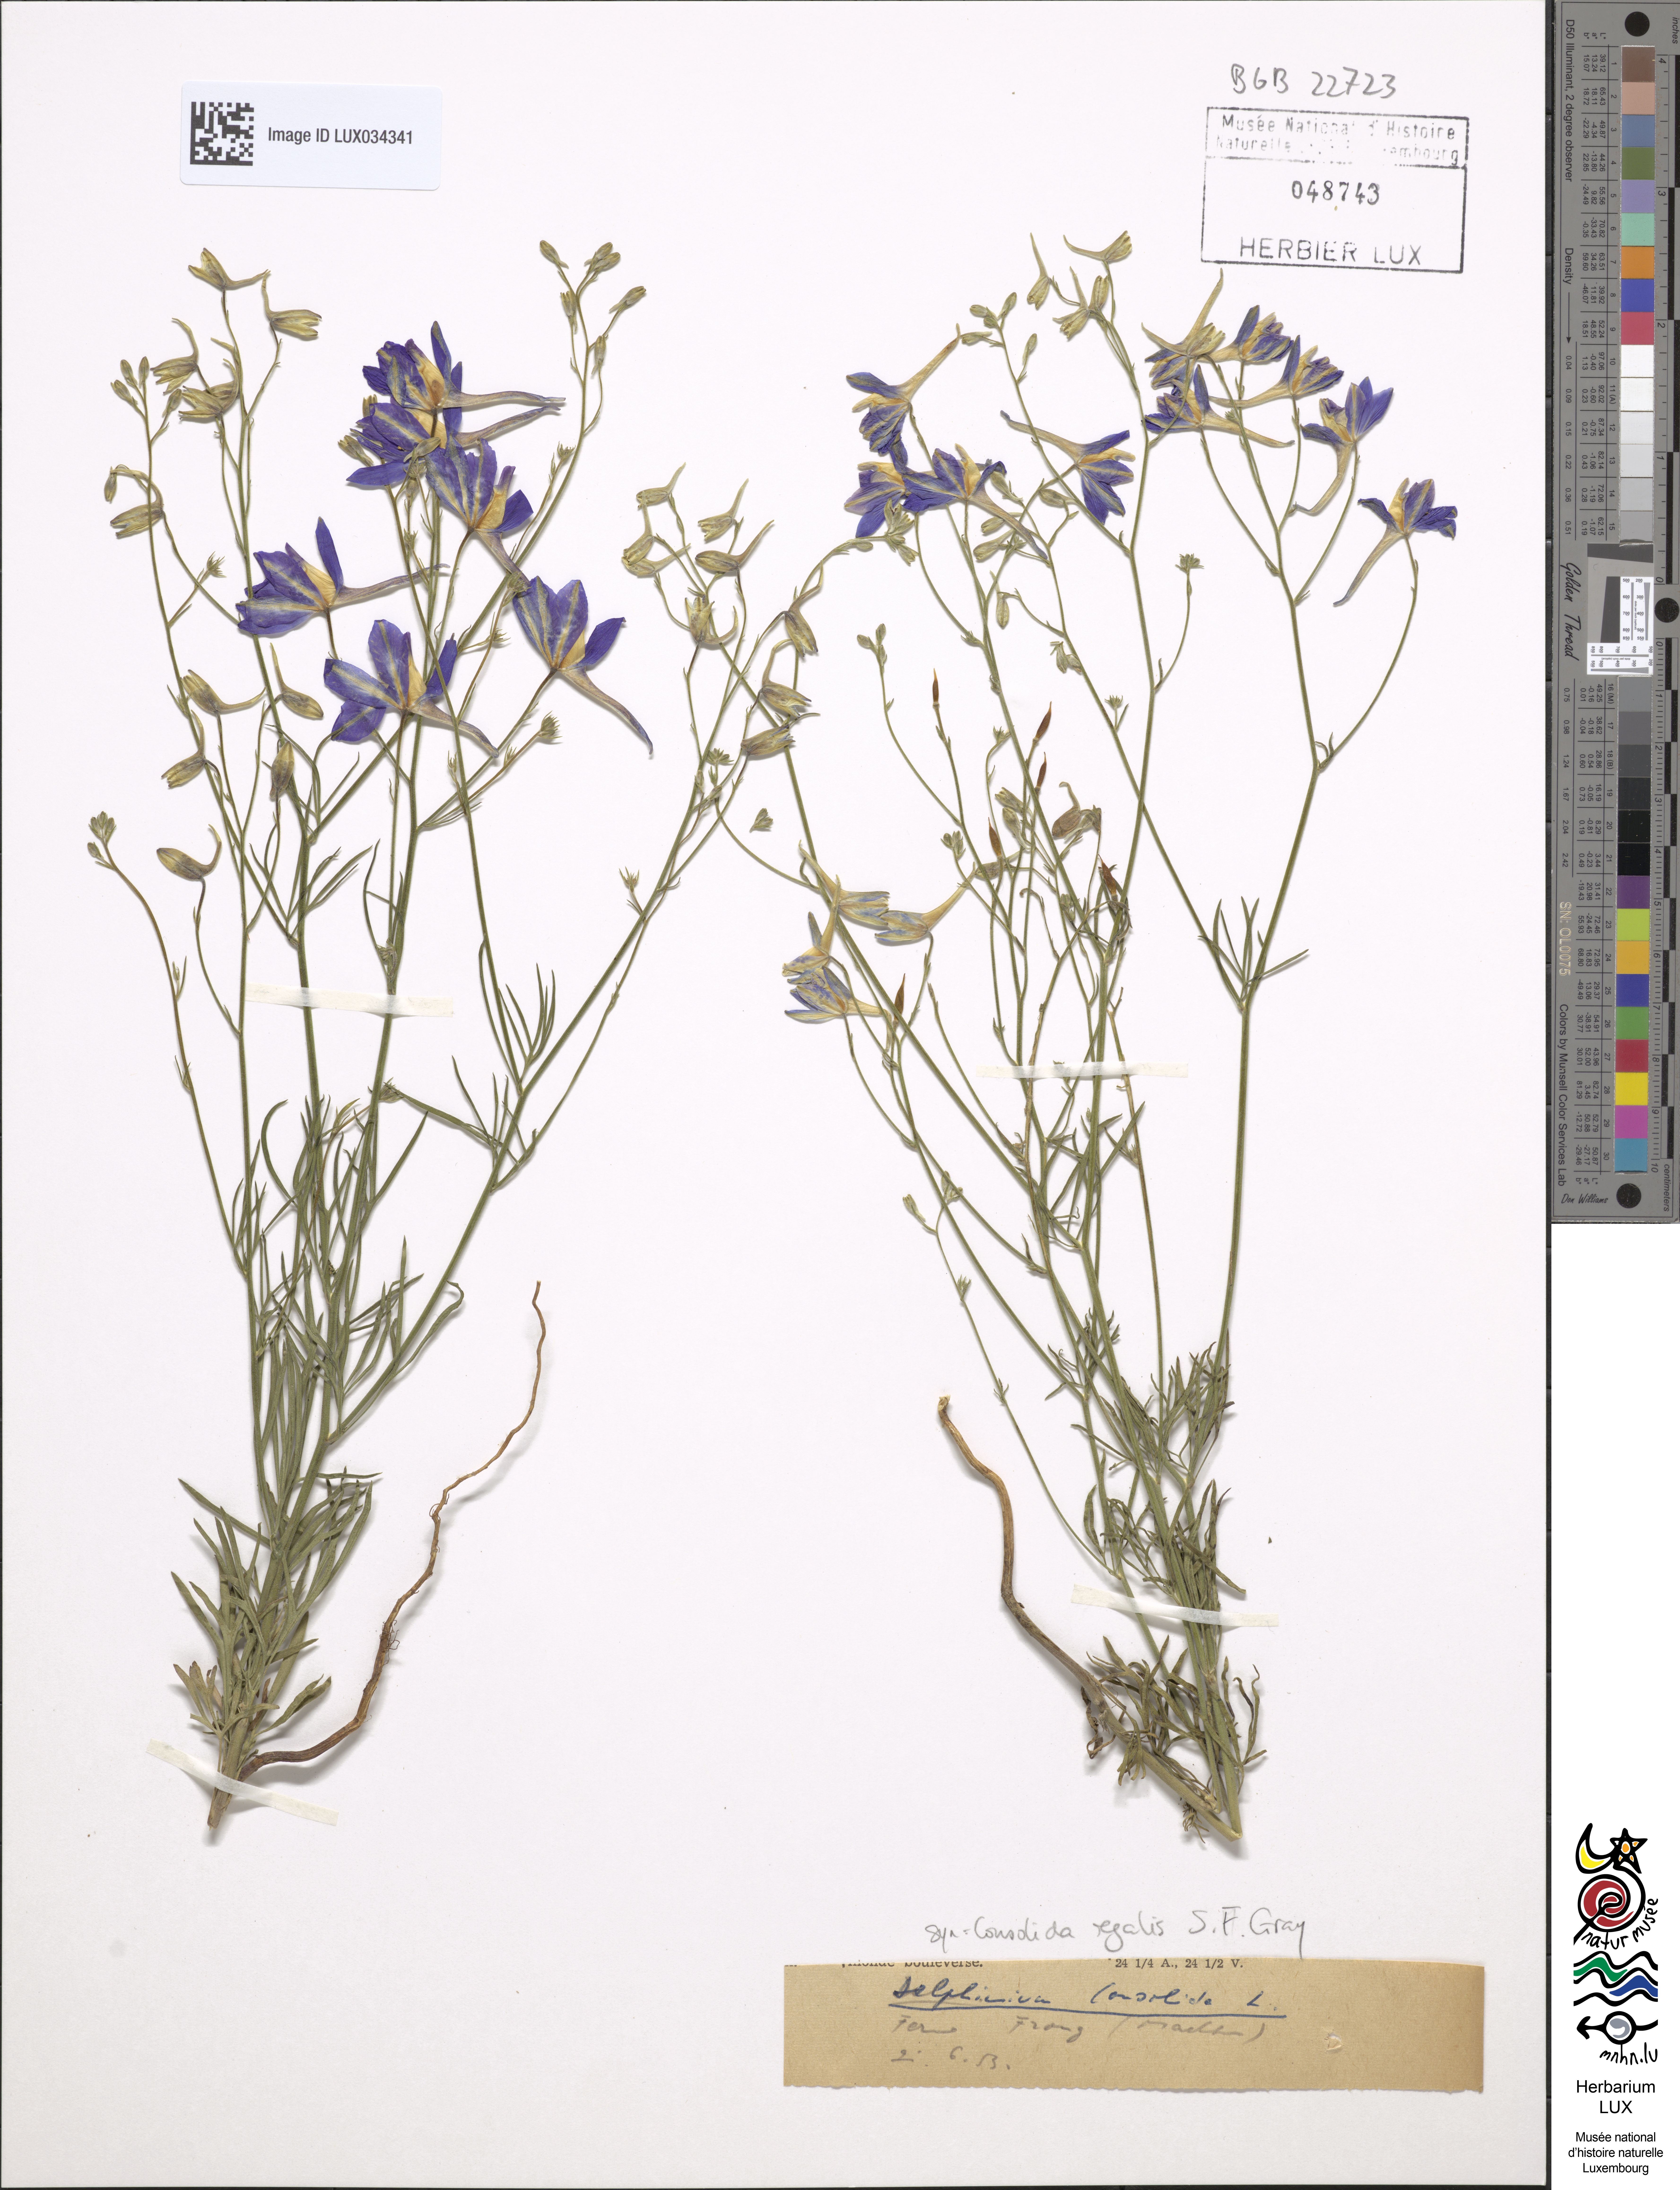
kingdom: Plantae
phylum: Tracheophyta
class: Magnoliopsida
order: Ranunculales
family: Ranunculaceae
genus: Delphinium
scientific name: Delphinium consolida
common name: Branching larkspur
